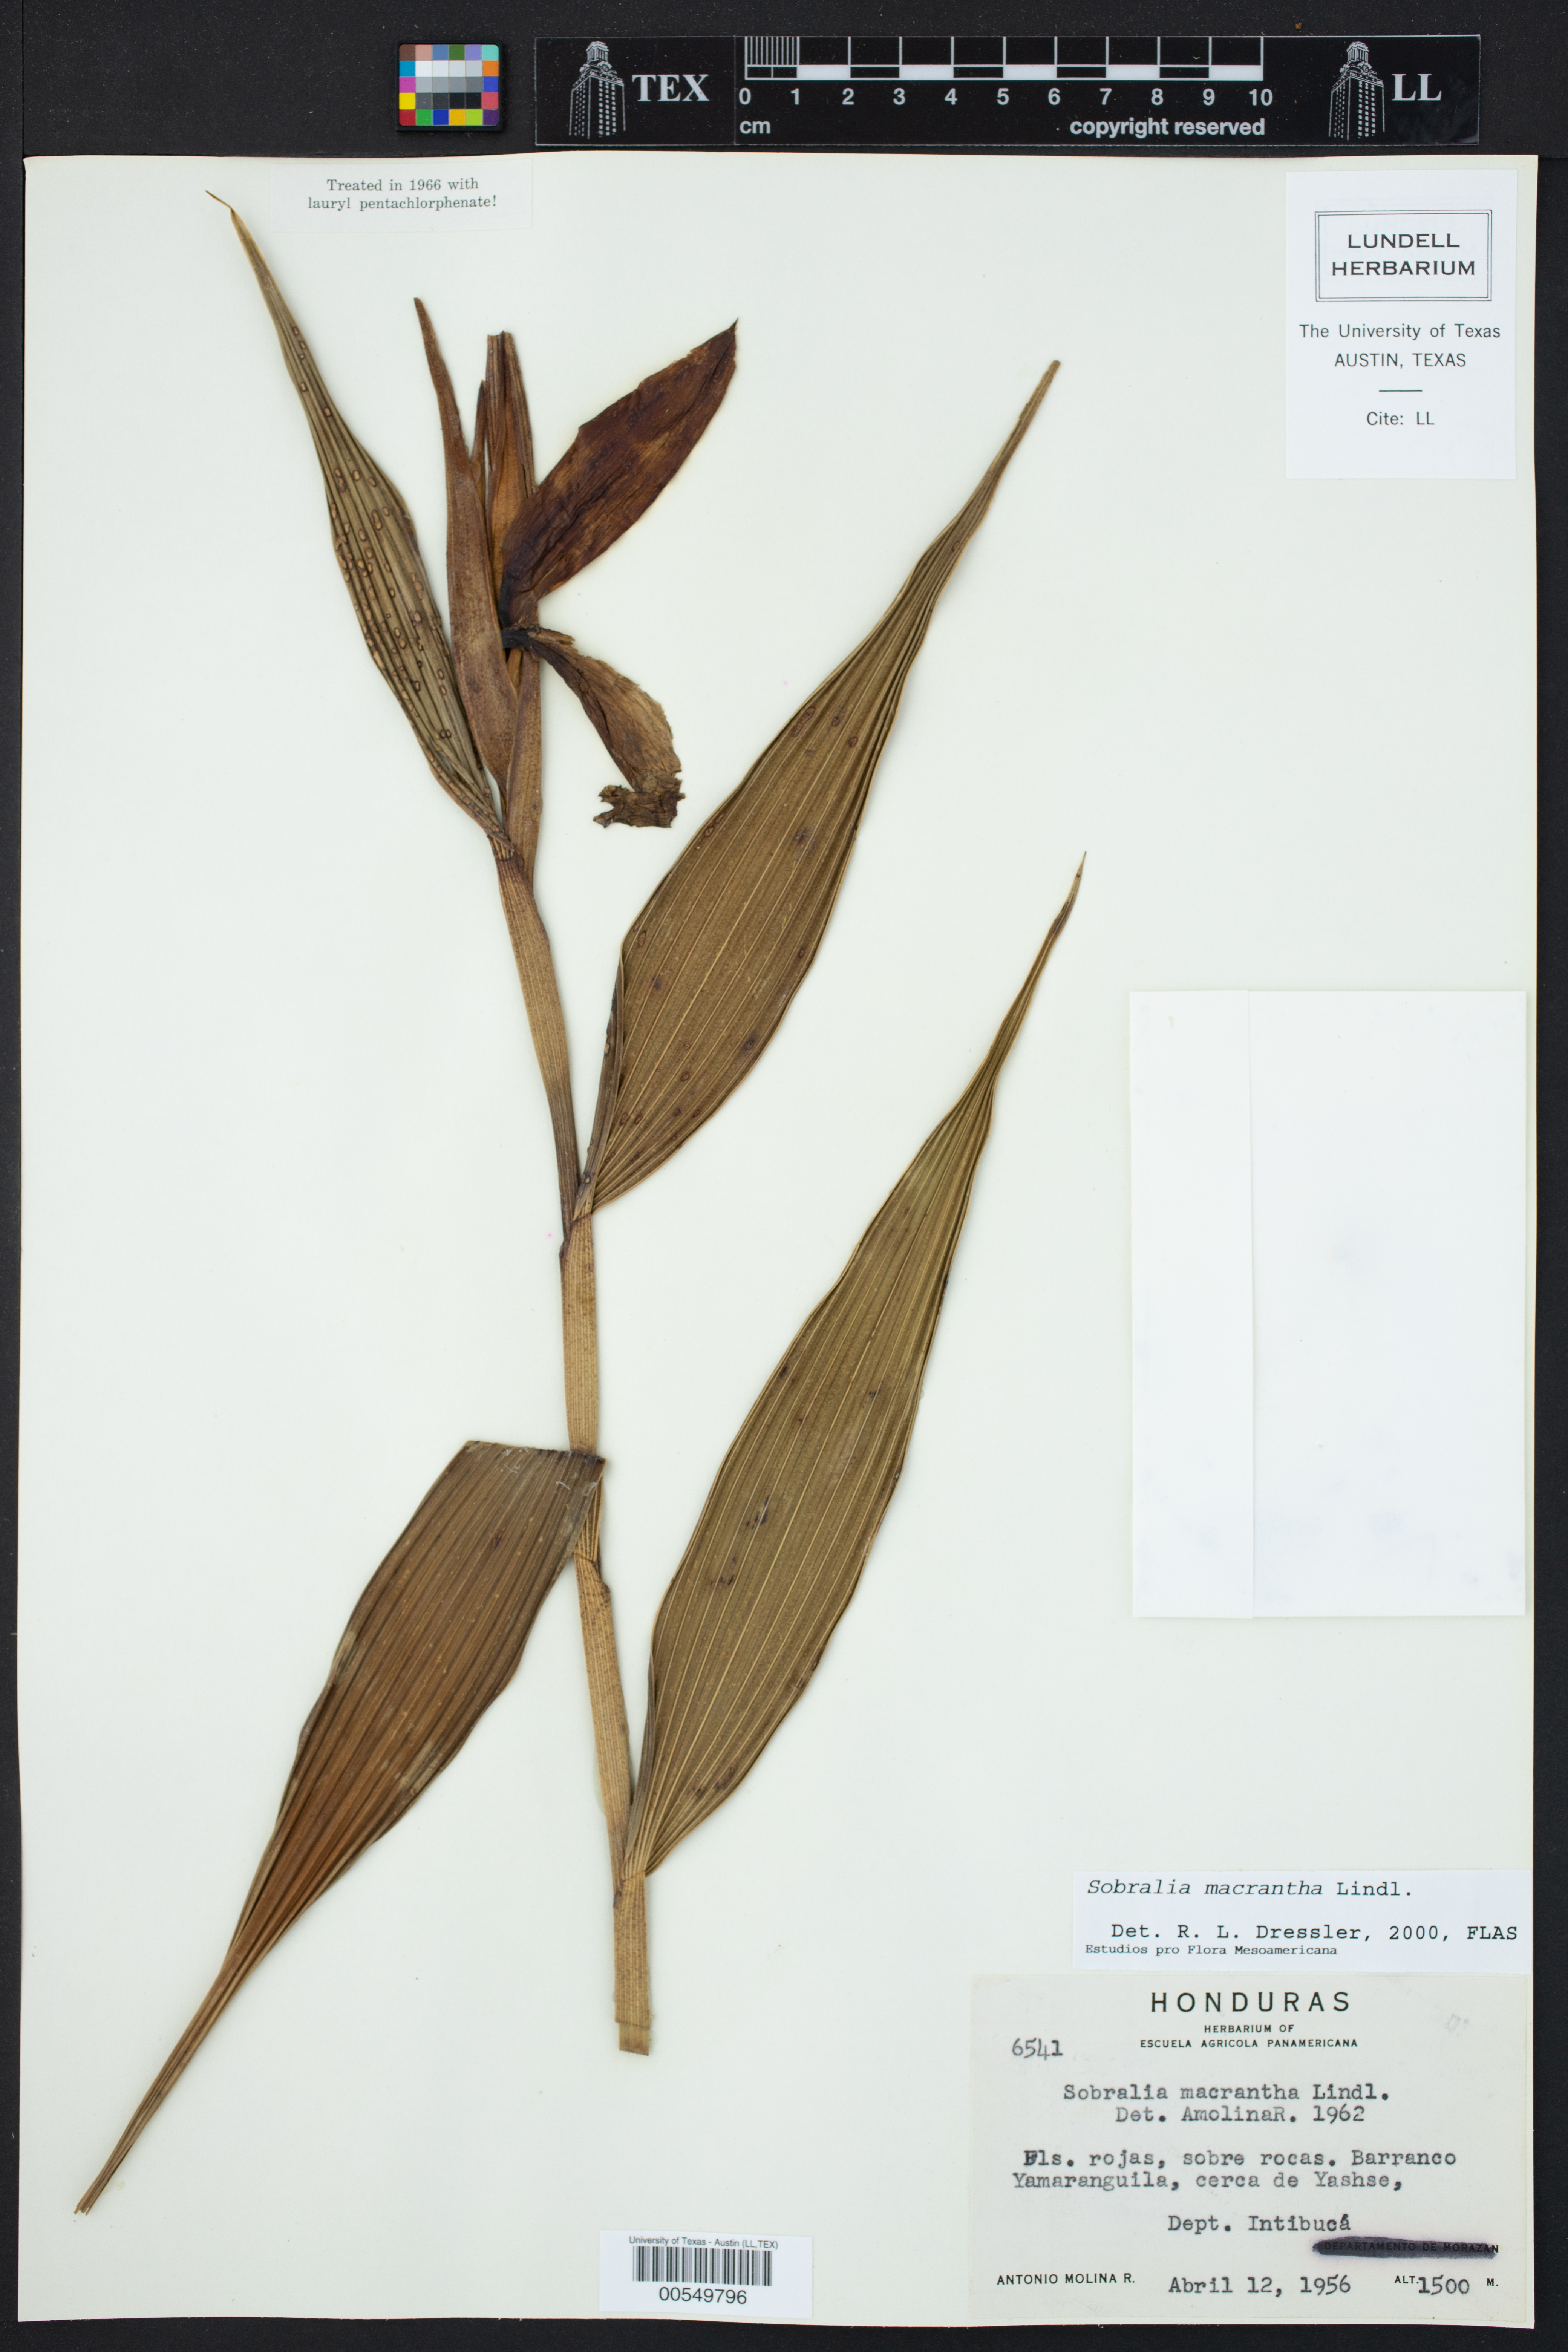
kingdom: Plantae
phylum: Tracheophyta
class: Liliopsida
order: Asparagales
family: Orchidaceae
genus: Sobralia
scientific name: Sobralia macrantha
